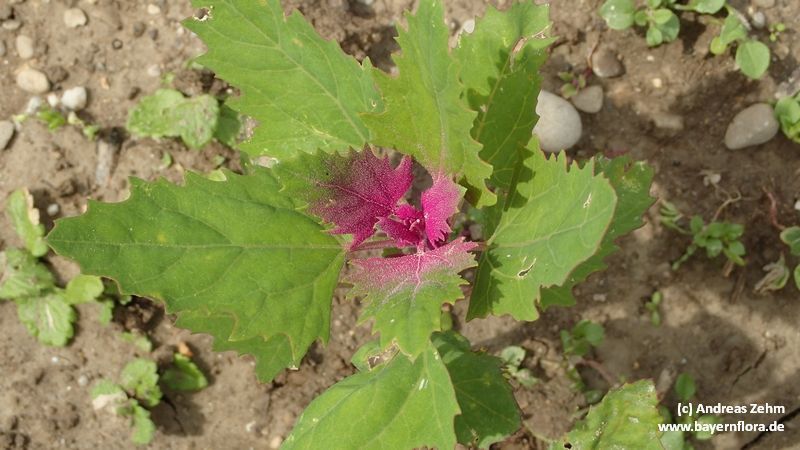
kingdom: Plantae
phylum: Tracheophyta
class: Magnoliopsida
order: Caryophyllales
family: Amaranthaceae
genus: Chenopodium
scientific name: Chenopodium giganteum
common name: Magentaspreen
